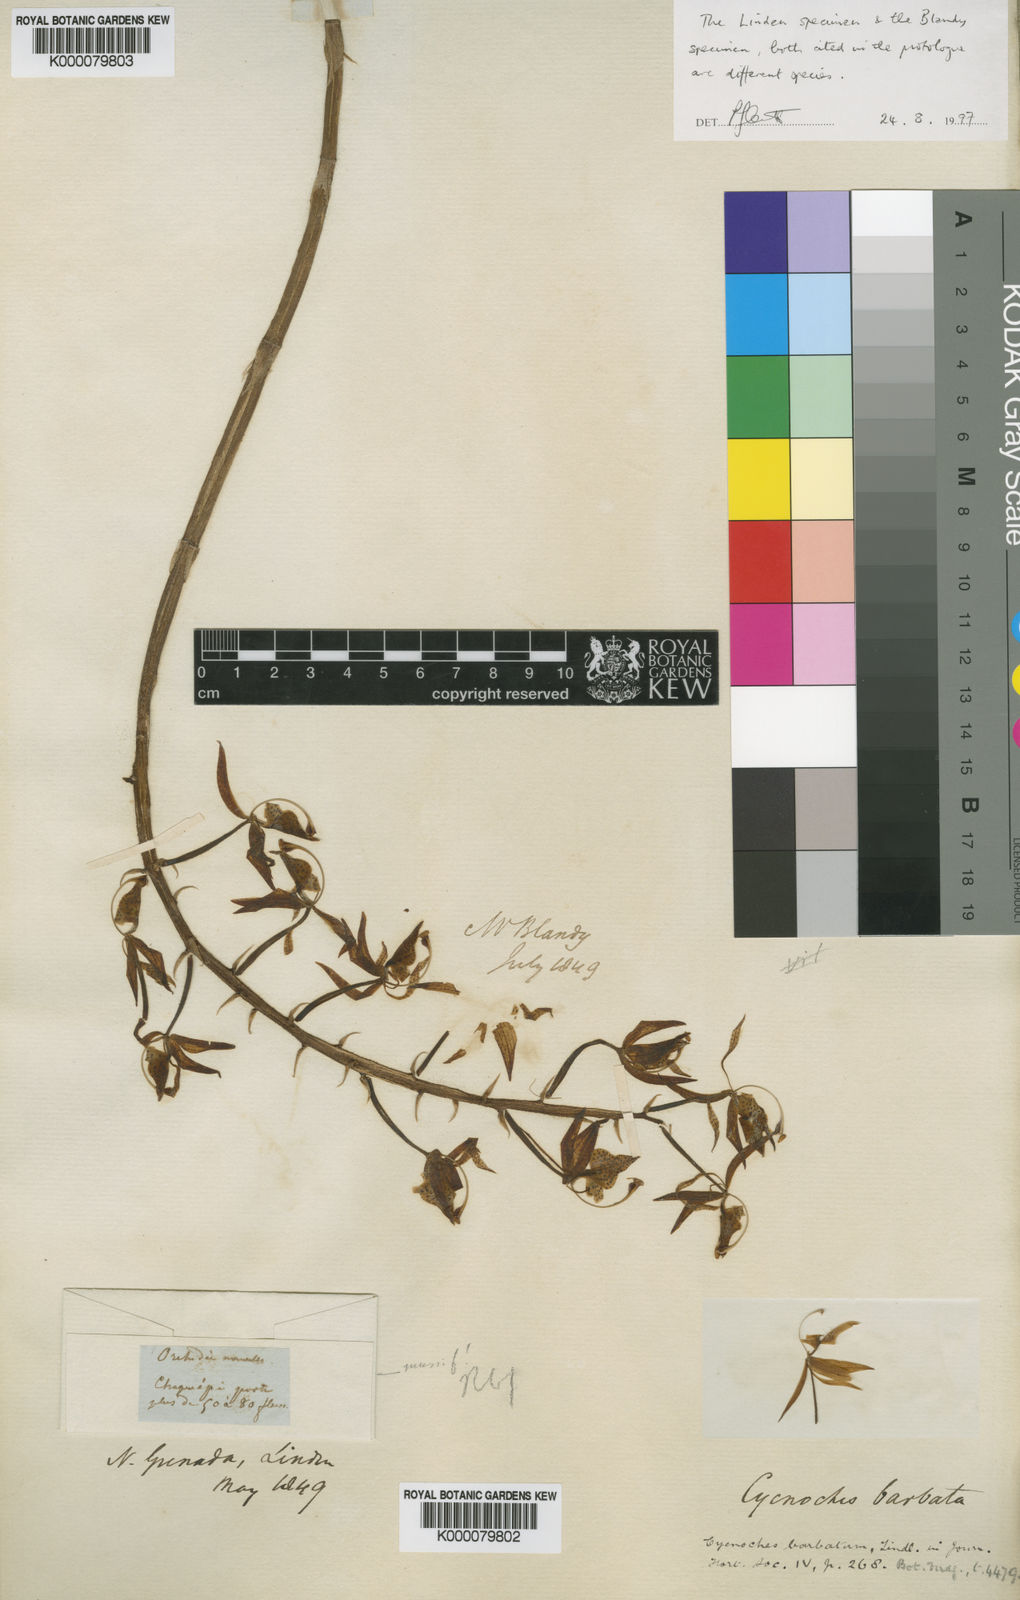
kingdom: Plantae
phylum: Tracheophyta
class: Liliopsida
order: Asparagales
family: Orchidaceae
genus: Polycycnis
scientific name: Polycycnis muscifera
